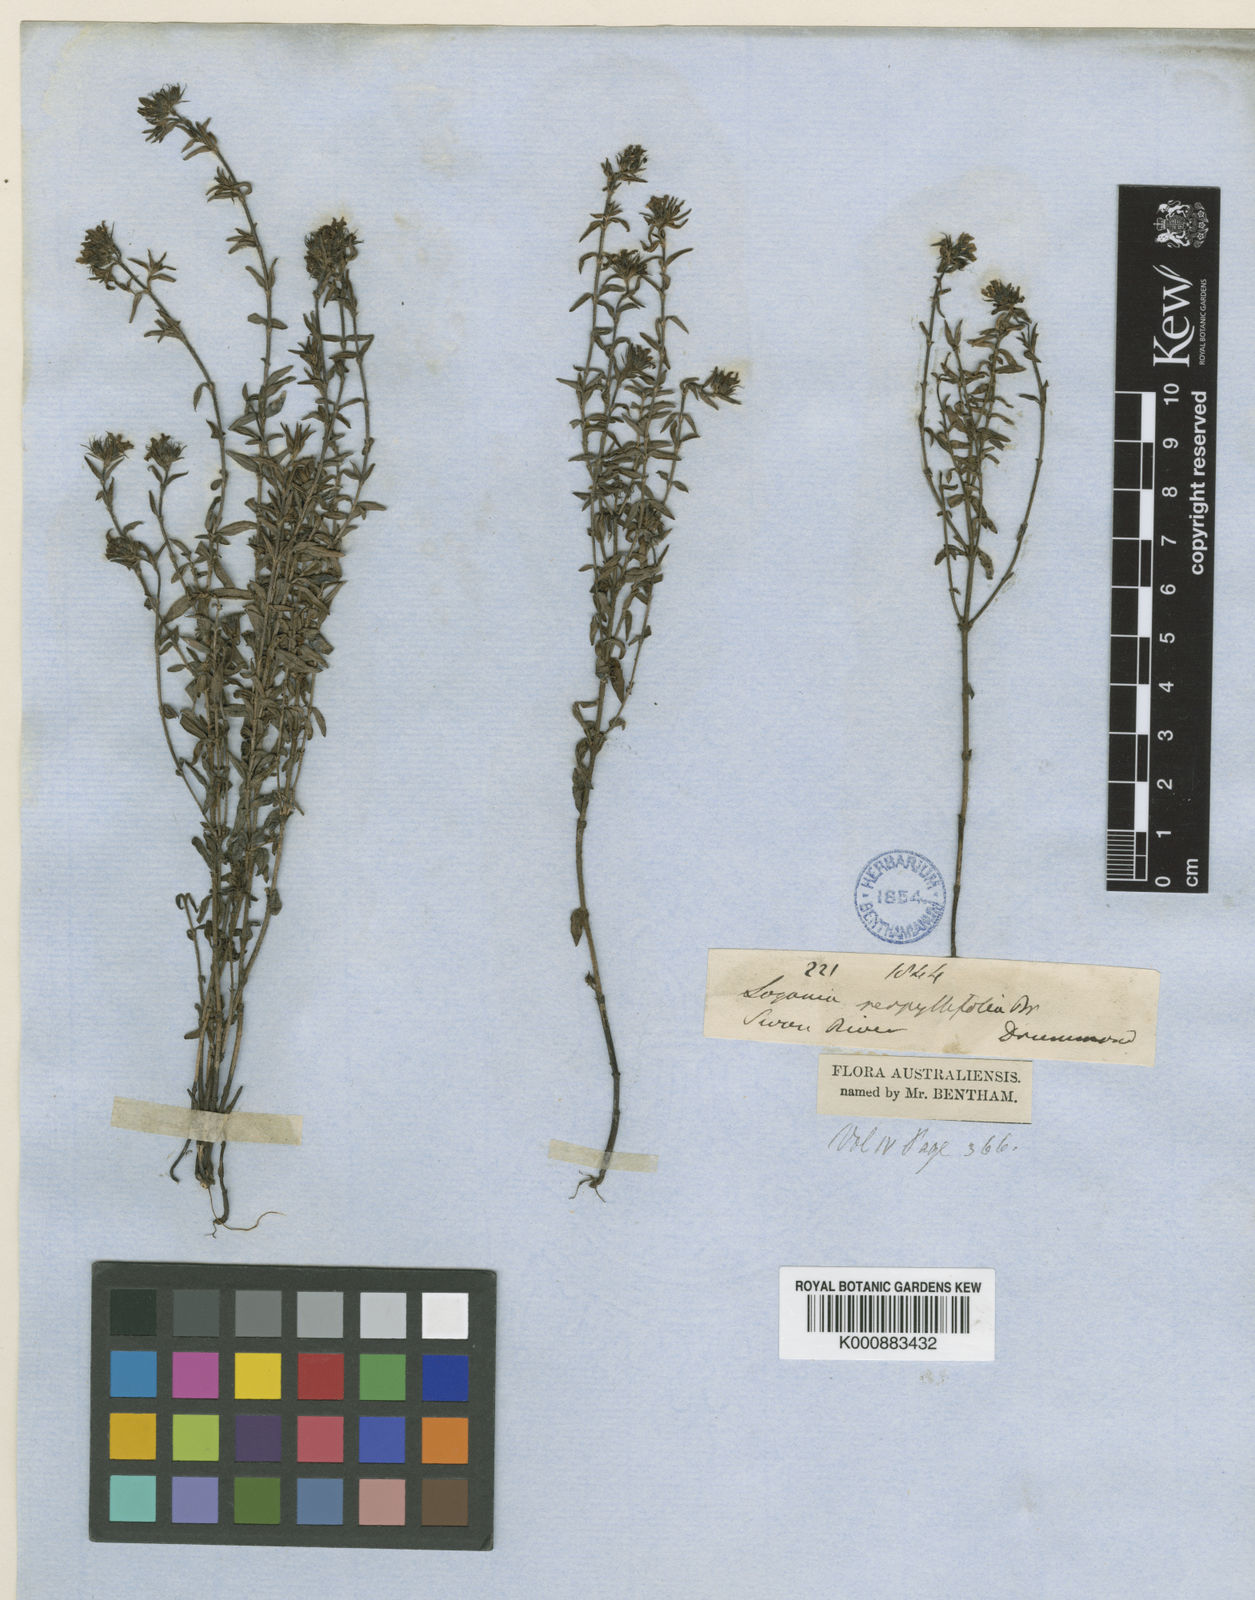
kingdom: Plantae
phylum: Tracheophyta
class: Magnoliopsida
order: Gentianales
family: Loganiaceae
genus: Orianthera
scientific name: Orianthera serpyllifolia
